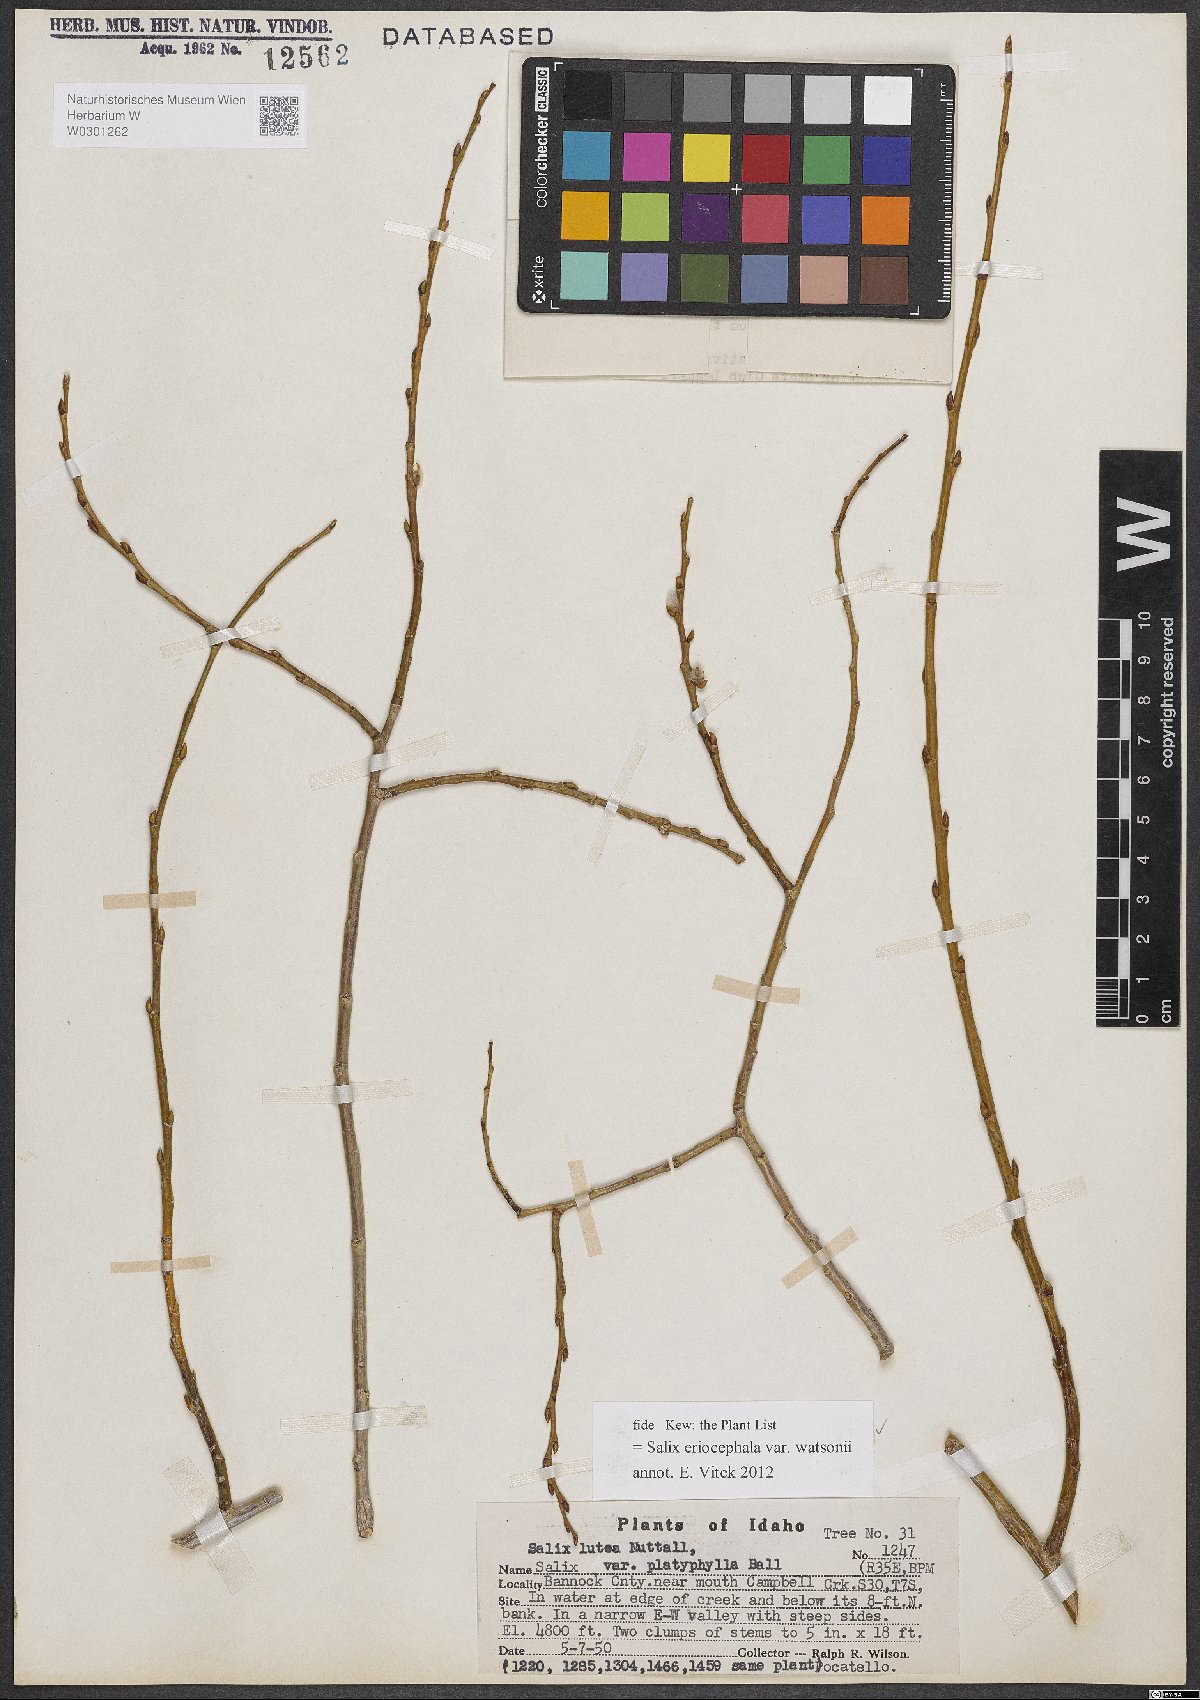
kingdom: Plantae
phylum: Tracheophyta
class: Magnoliopsida
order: Malpighiales
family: Salicaceae
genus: Salix
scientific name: Salix lutea
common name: Yellow willow
